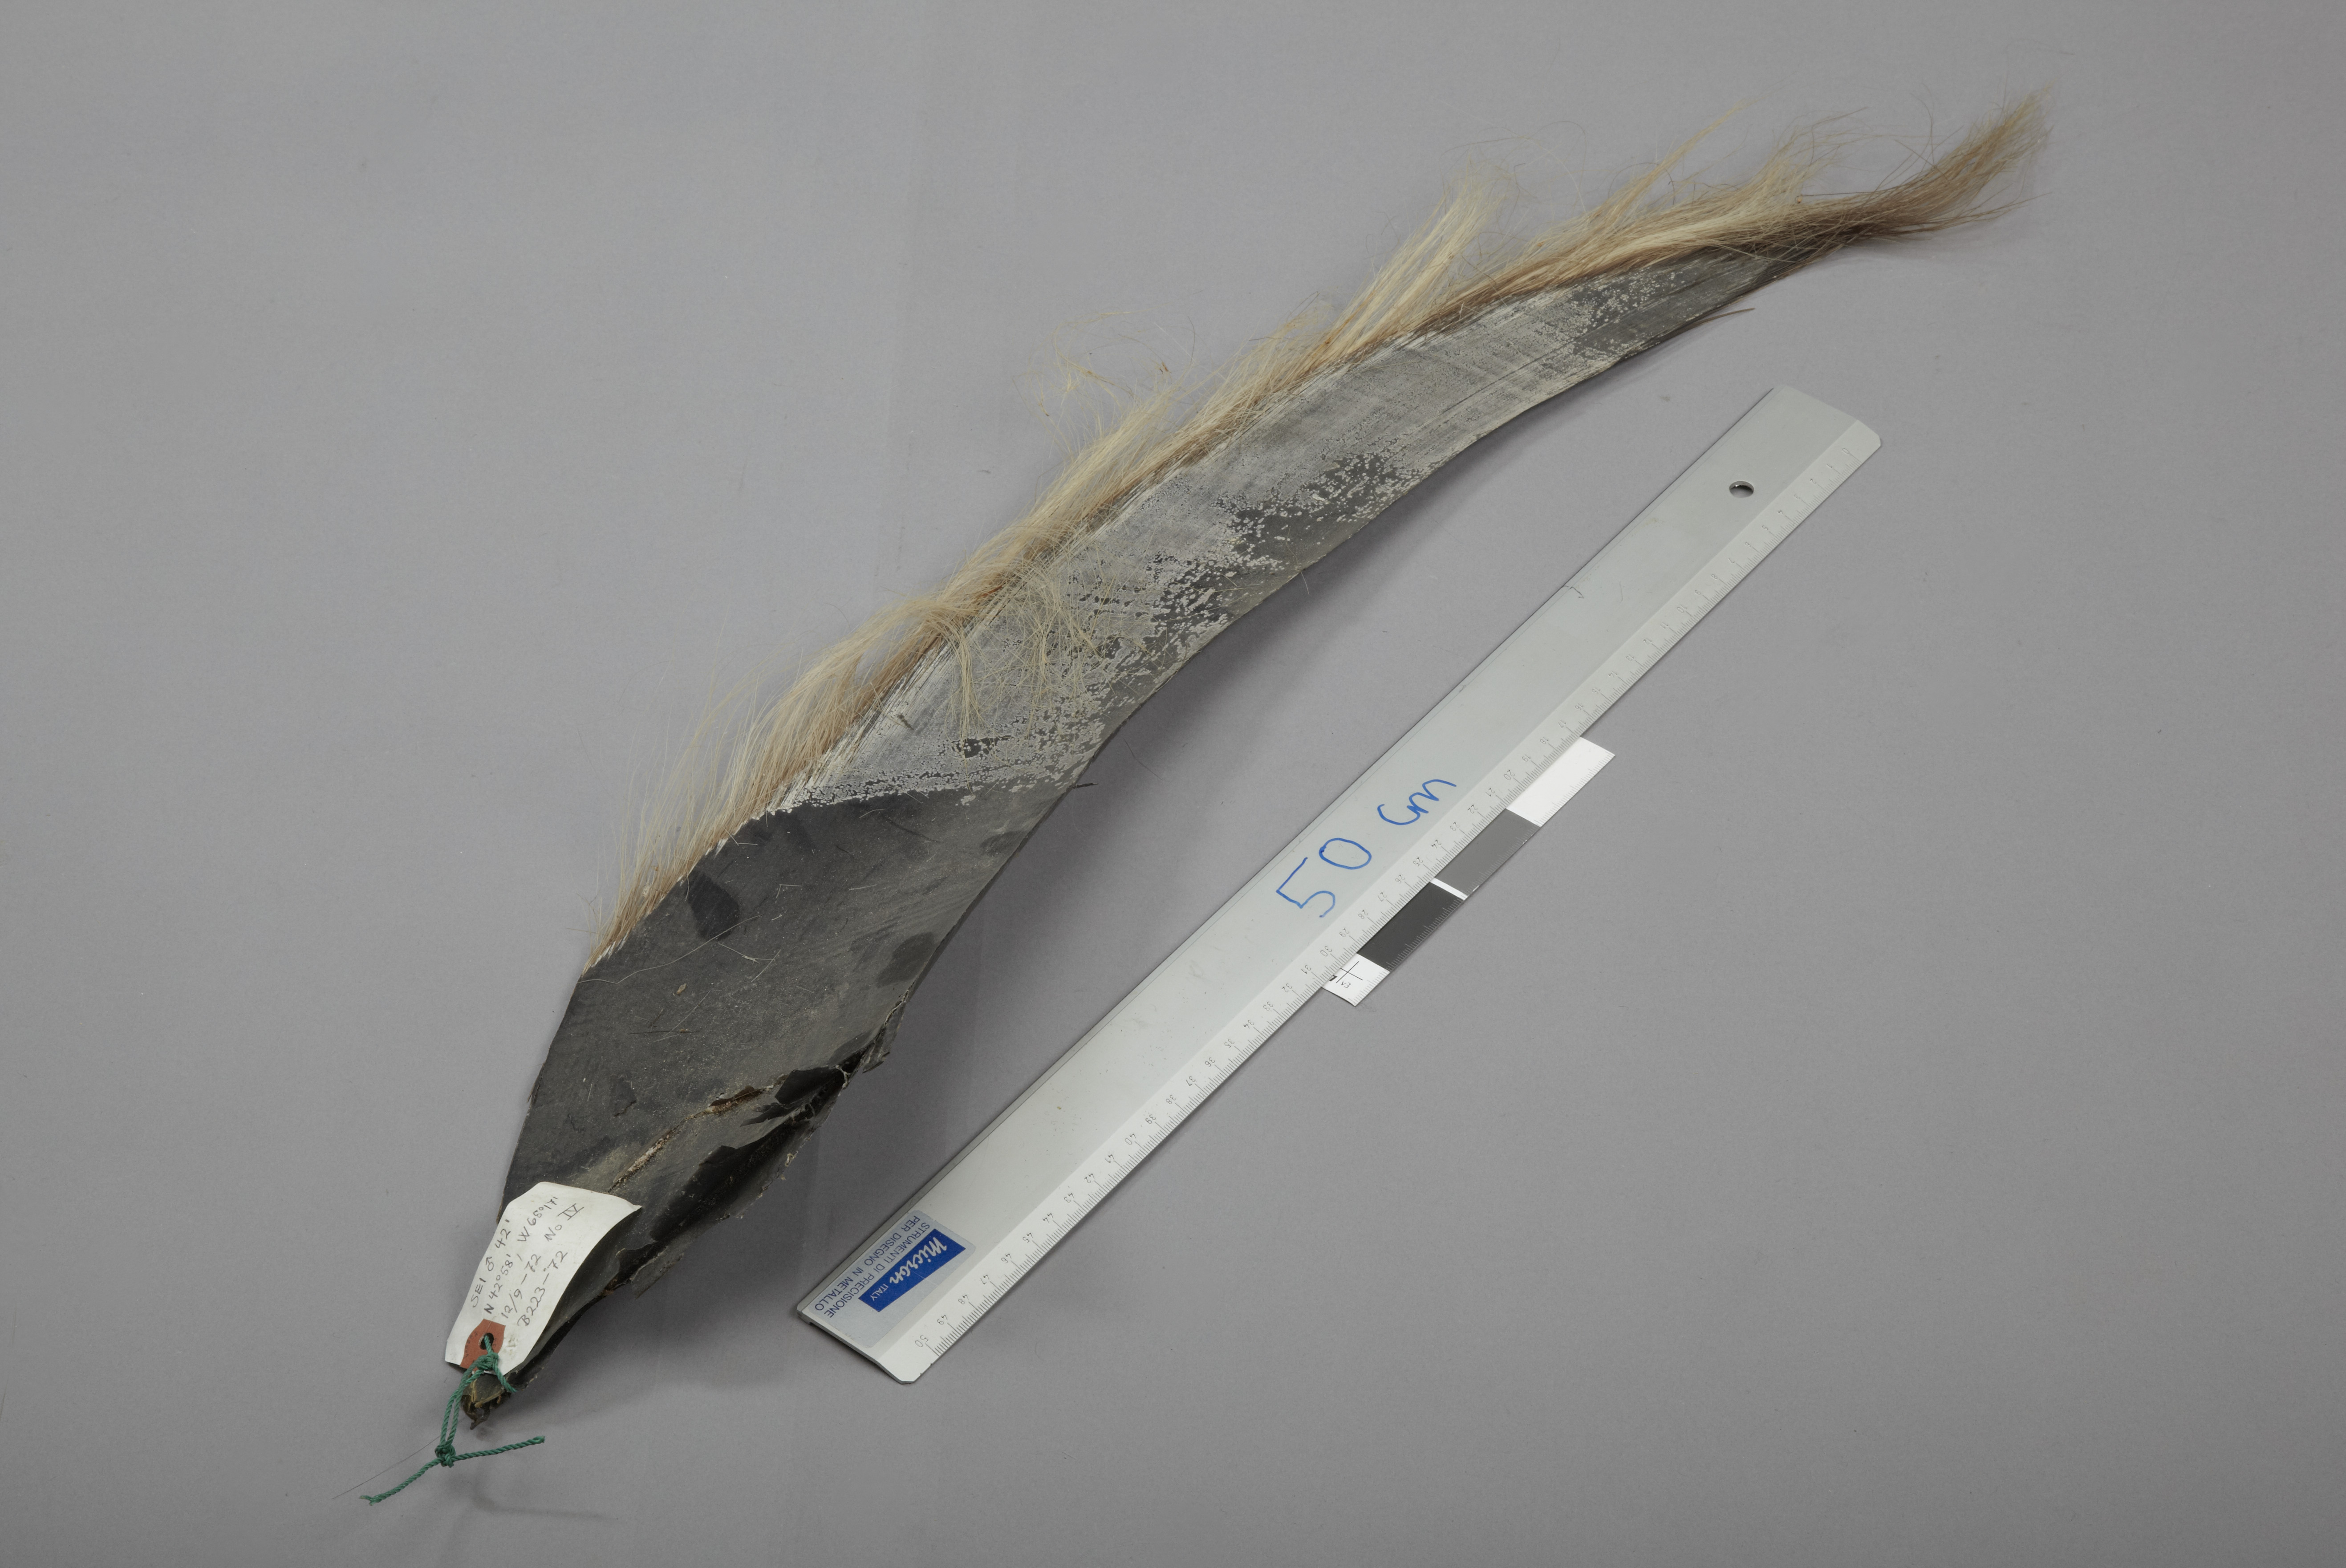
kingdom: Animalia
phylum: Chordata
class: Mammalia
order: Cetacea
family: Balaenopteridae
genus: Balaenoptera
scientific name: Balaenoptera borealis
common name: Sei whale
